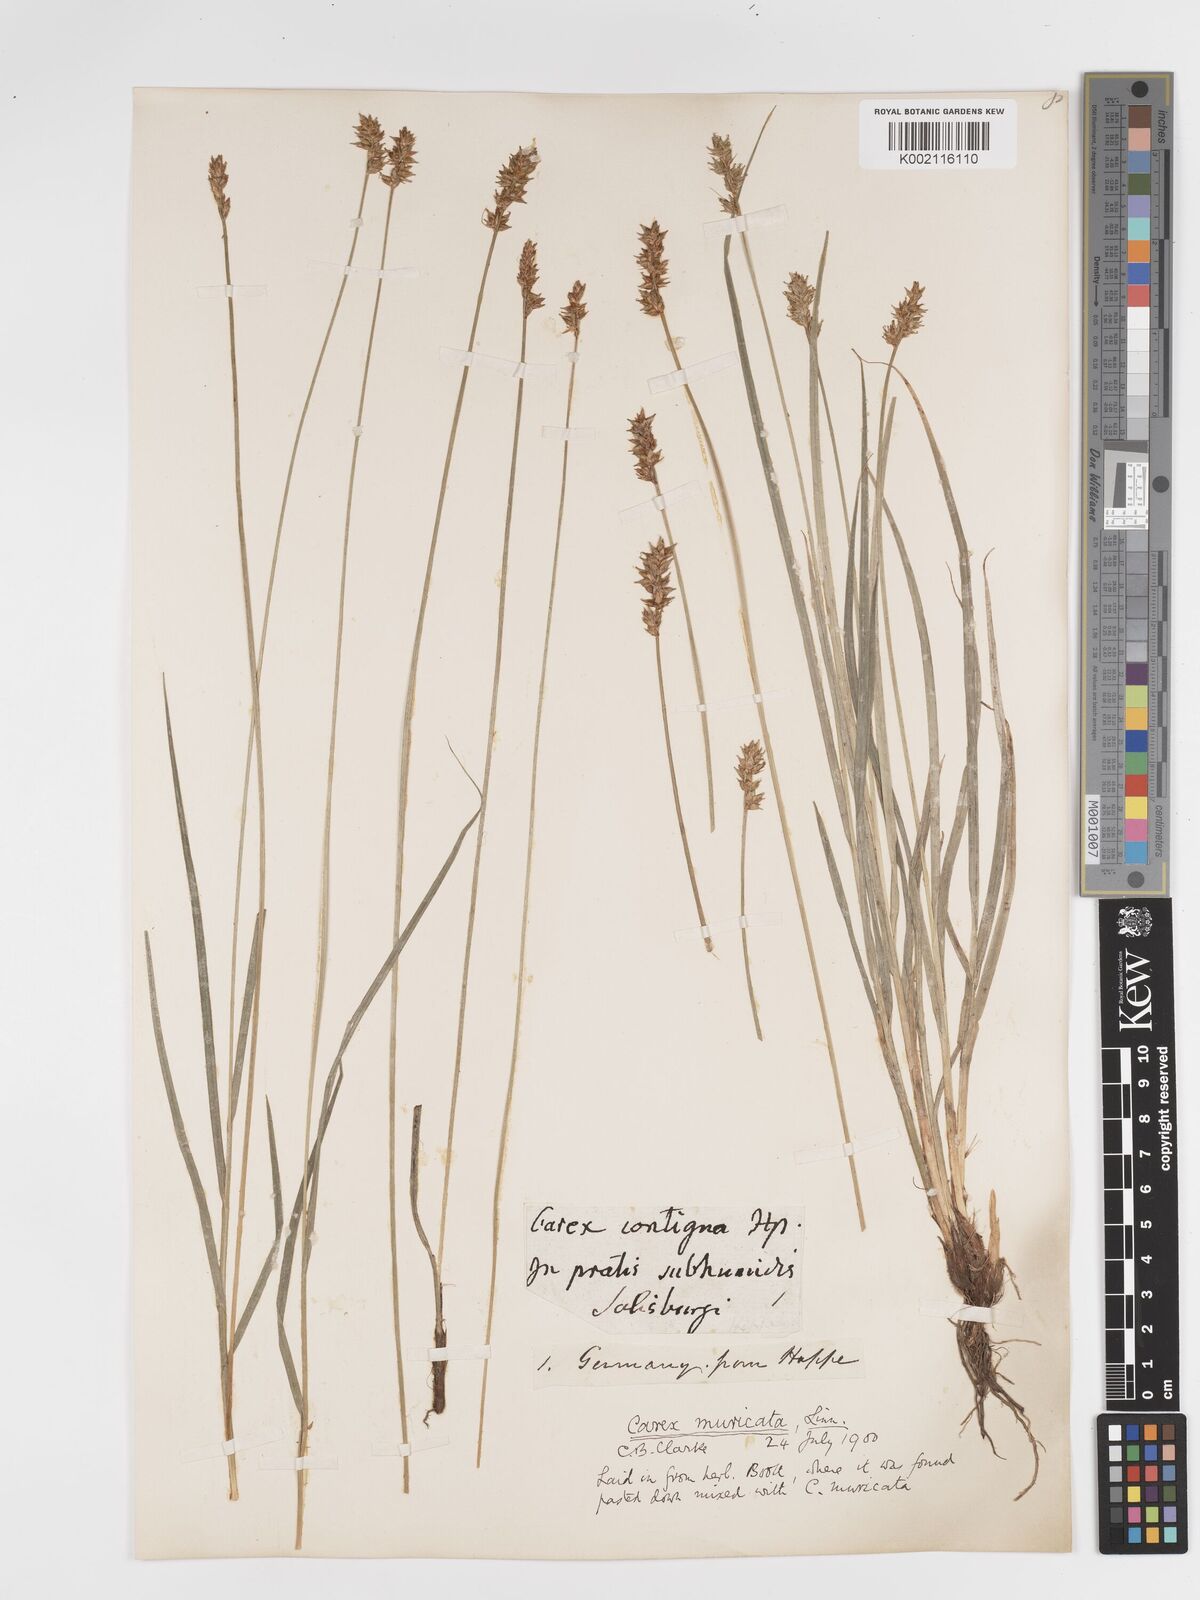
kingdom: Plantae
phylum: Tracheophyta
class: Liliopsida
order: Poales
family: Cyperaceae
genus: Carex
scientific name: Carex spicata
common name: Spiked sedge
